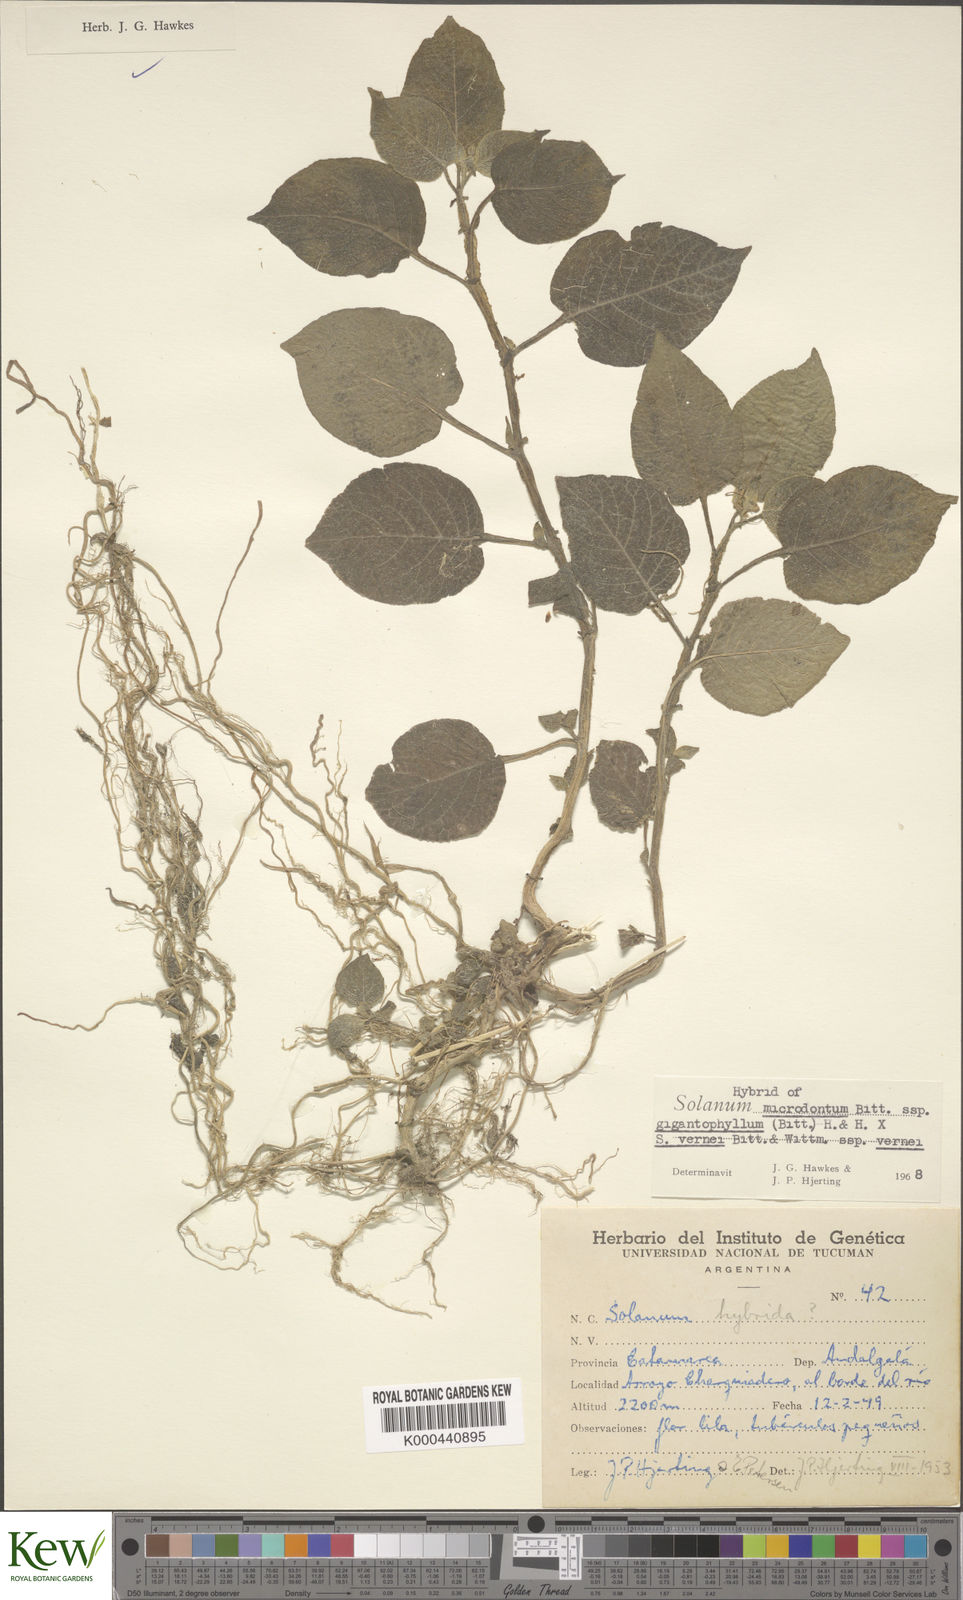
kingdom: Plantae
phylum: Tracheophyta
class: Magnoliopsida
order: Solanales
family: Solanaceae
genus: Solanum
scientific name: Solanum microdontum
